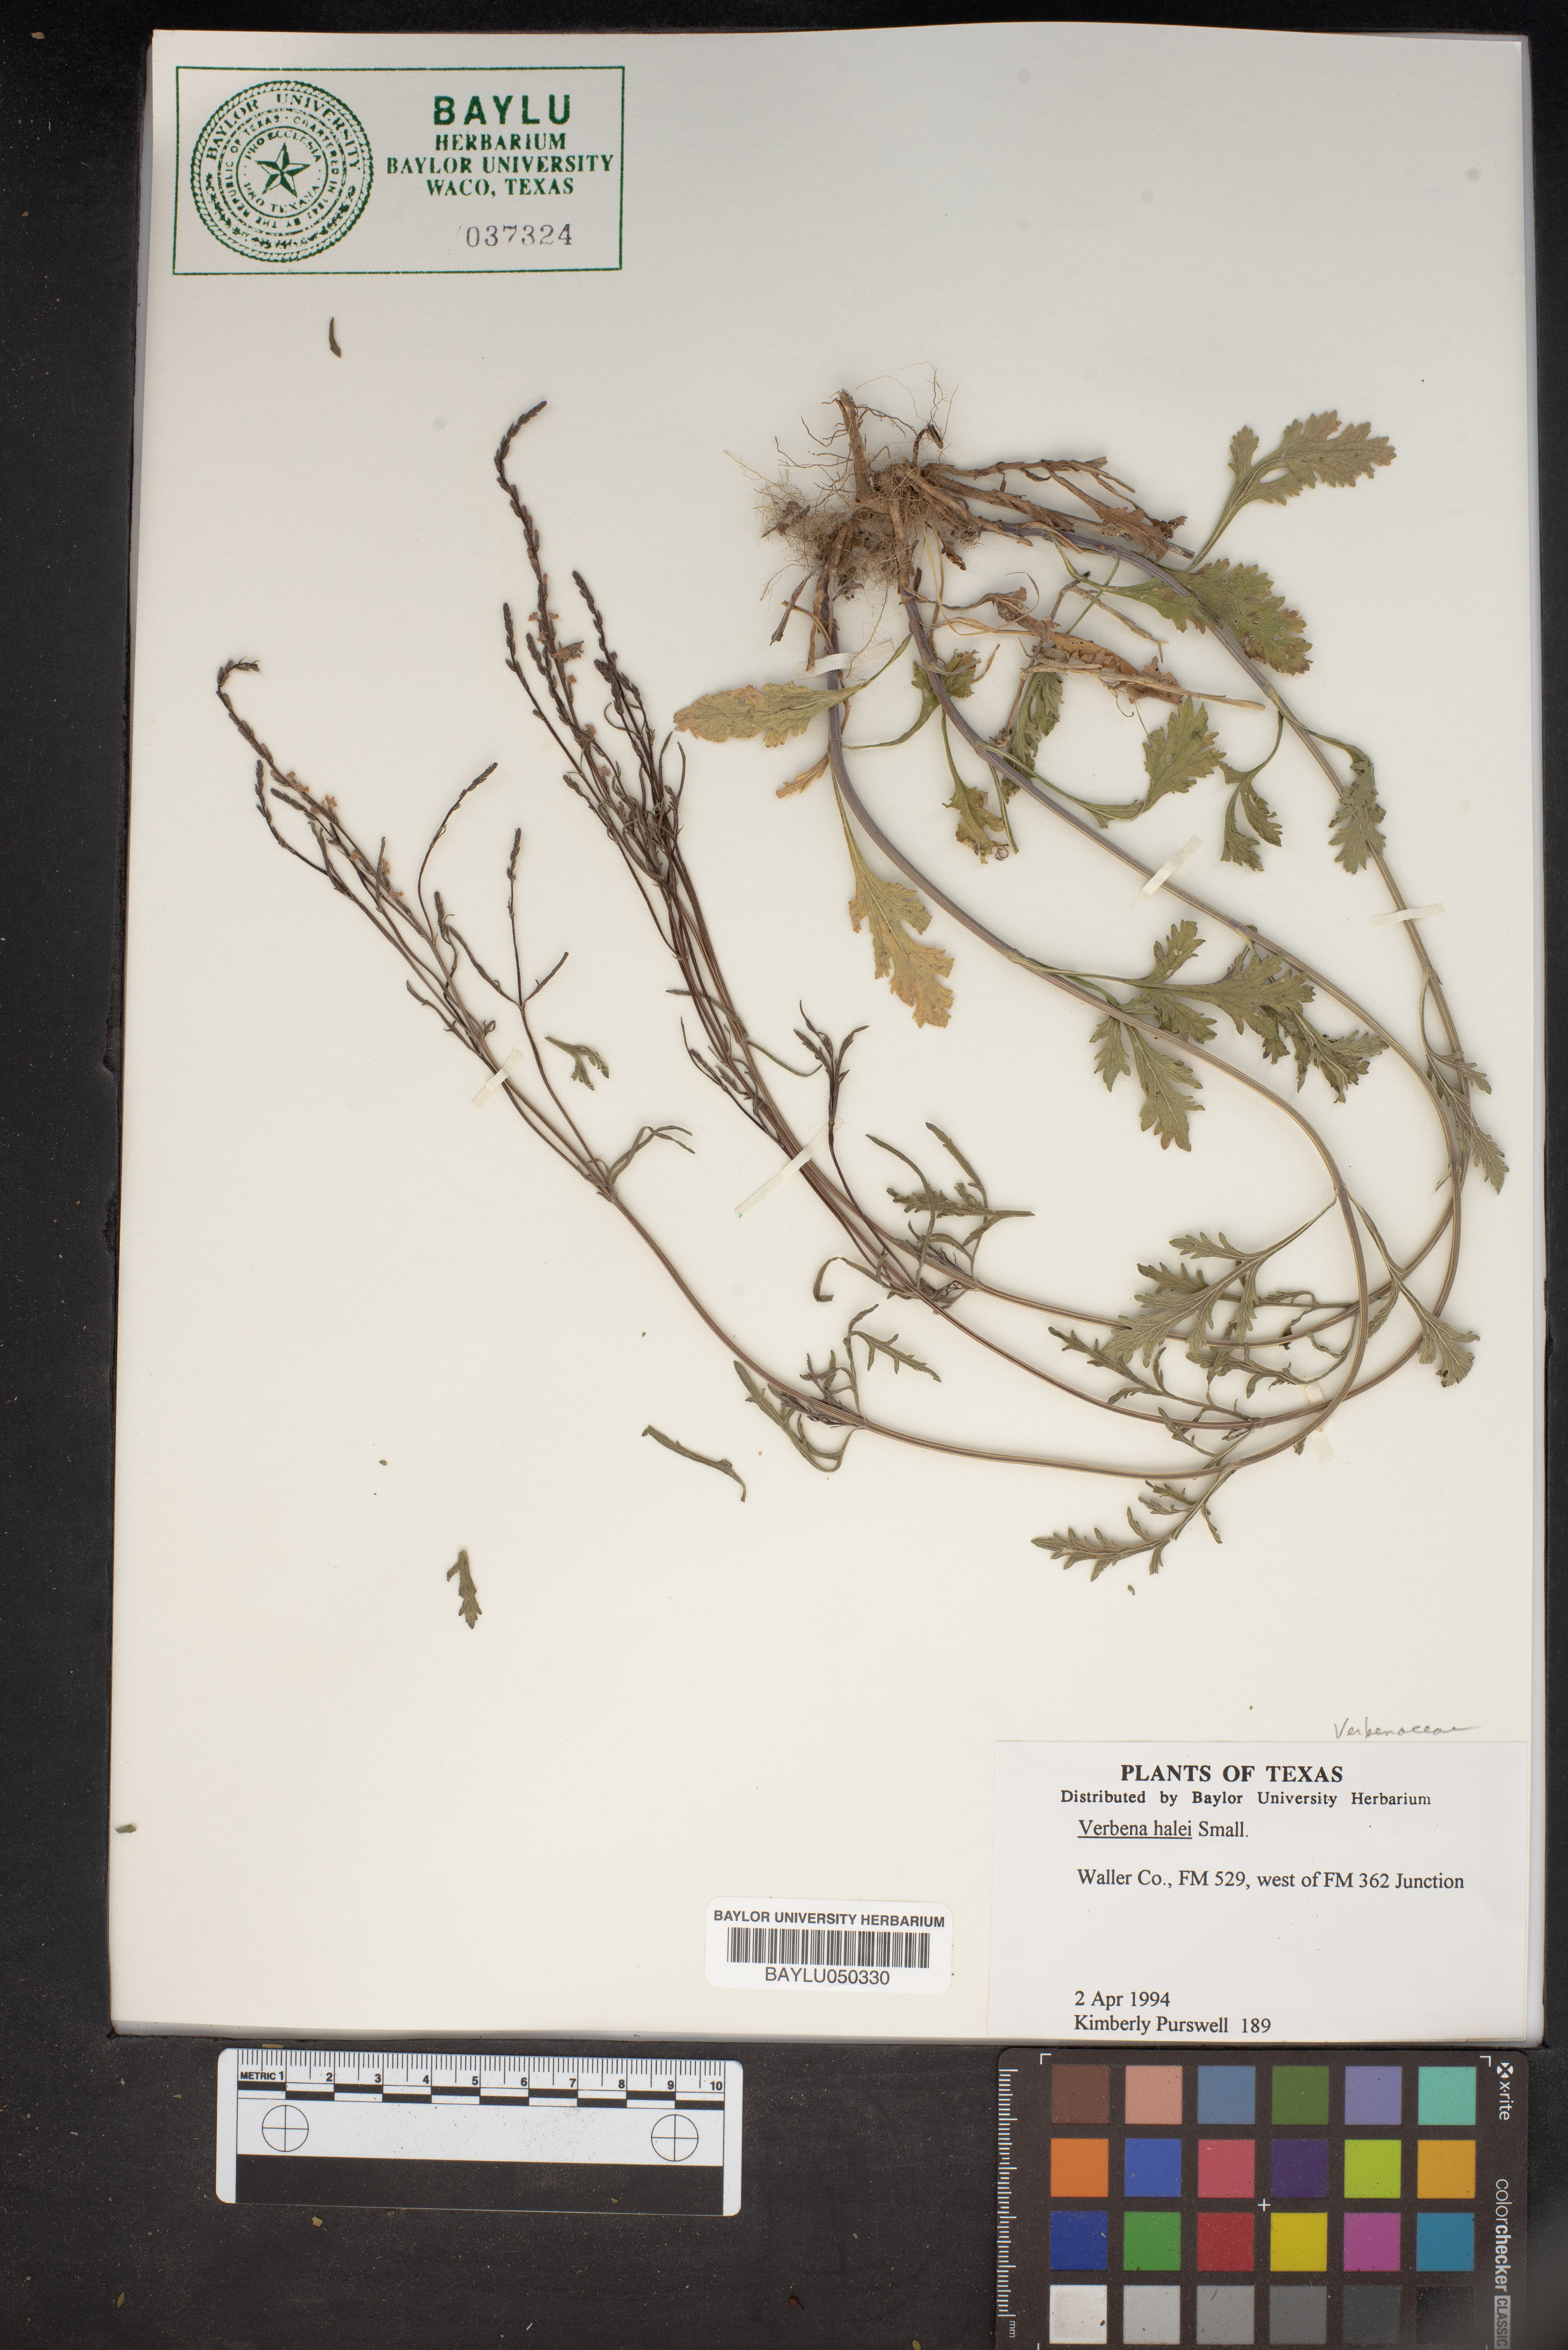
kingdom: Plantae
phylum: Tracheophyta
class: Magnoliopsida
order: Lamiales
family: Verbenaceae
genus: Verbena
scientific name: Verbena halei
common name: Texas vervain
